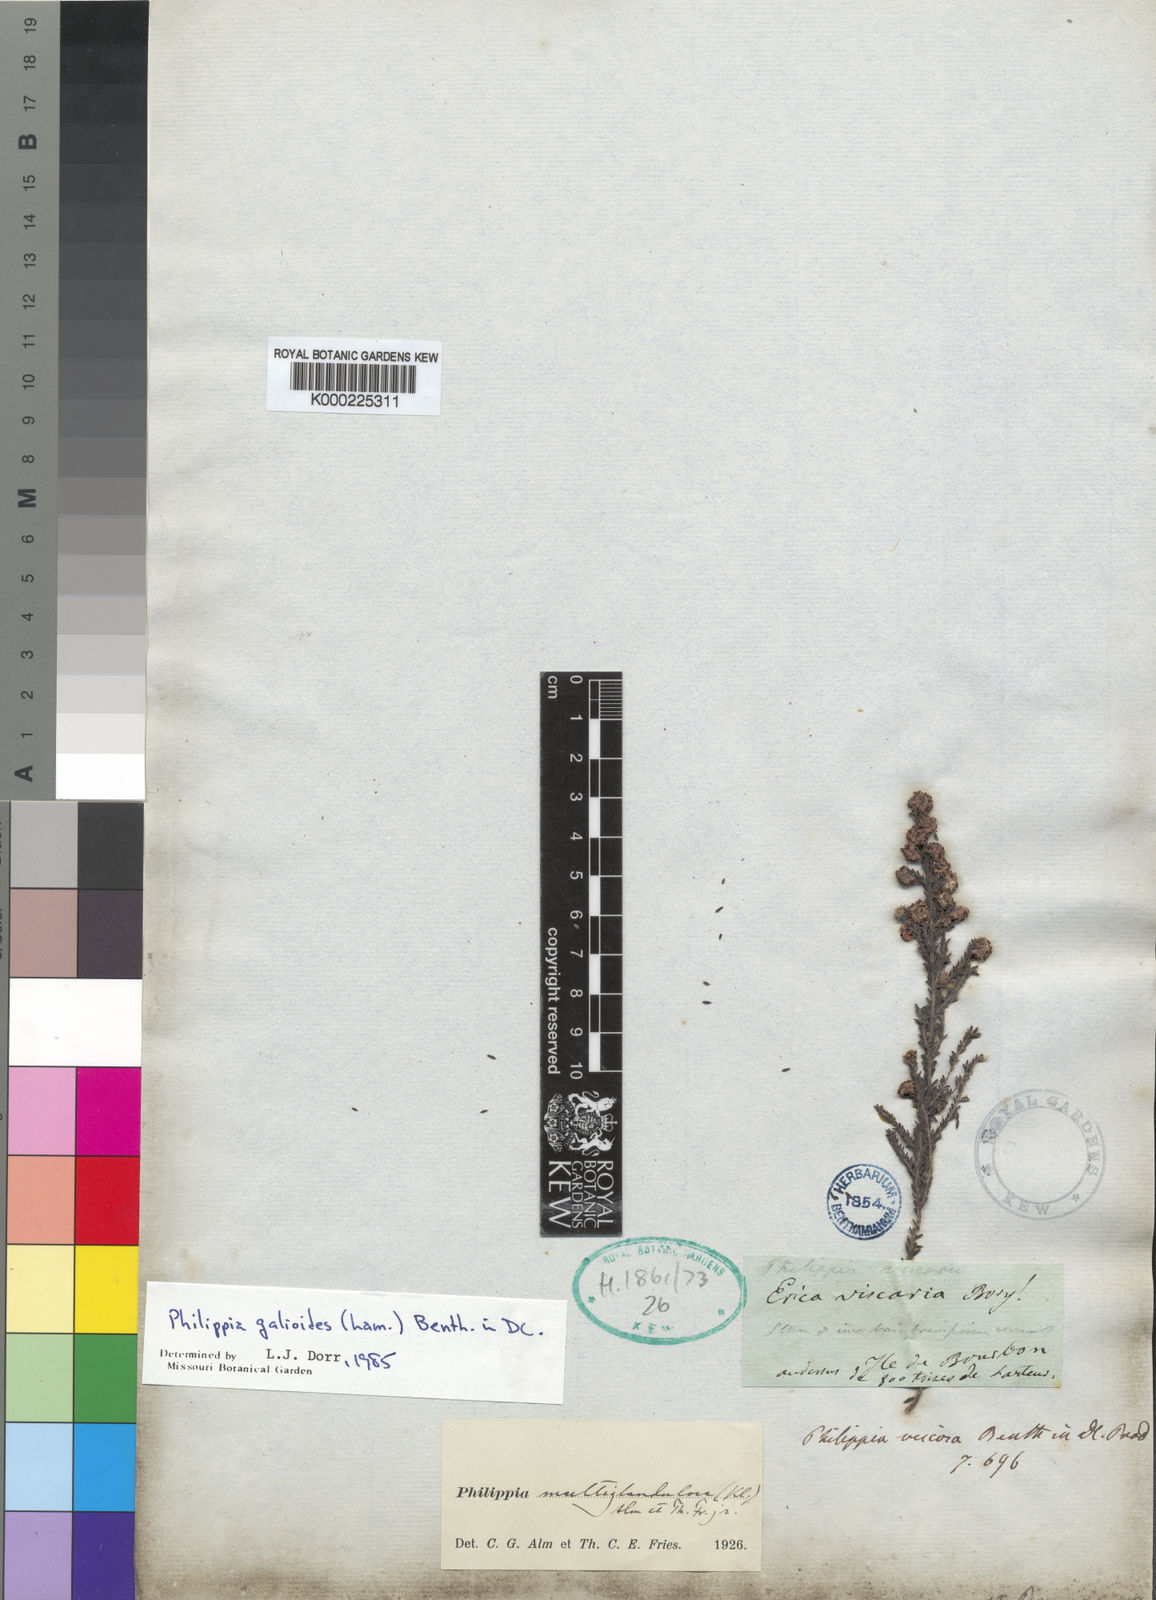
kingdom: Plantae
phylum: Tracheophyta
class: Magnoliopsida
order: Ericales
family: Ericaceae
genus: Erica
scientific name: Erica galioides
